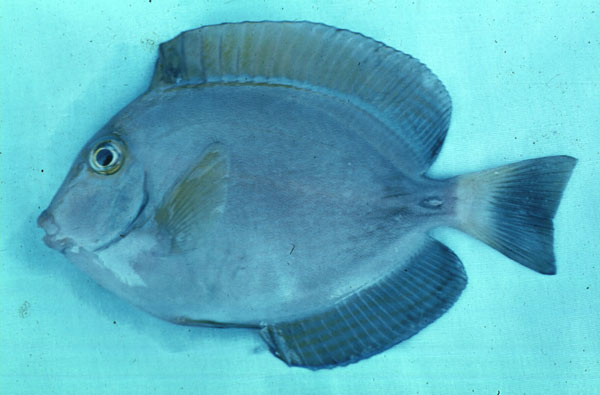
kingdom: Animalia
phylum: Chordata
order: Perciformes
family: Acanthuridae
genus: Acanthurus
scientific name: Acanthurus lineatus
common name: Striped surgeonfish
